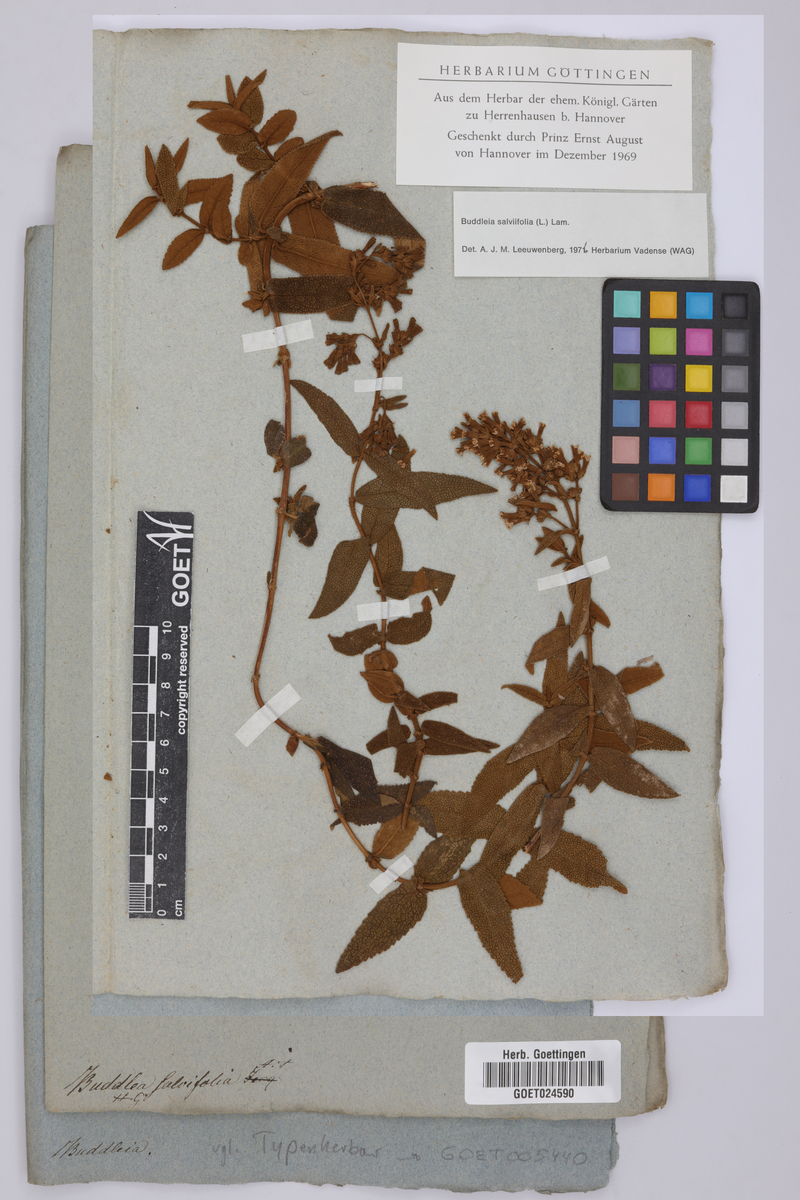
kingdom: Plantae
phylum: Tracheophyta
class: Magnoliopsida
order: Lamiales
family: Scrophulariaceae
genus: Buddleja
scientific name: Buddleja salviifolia
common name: Sagewood
